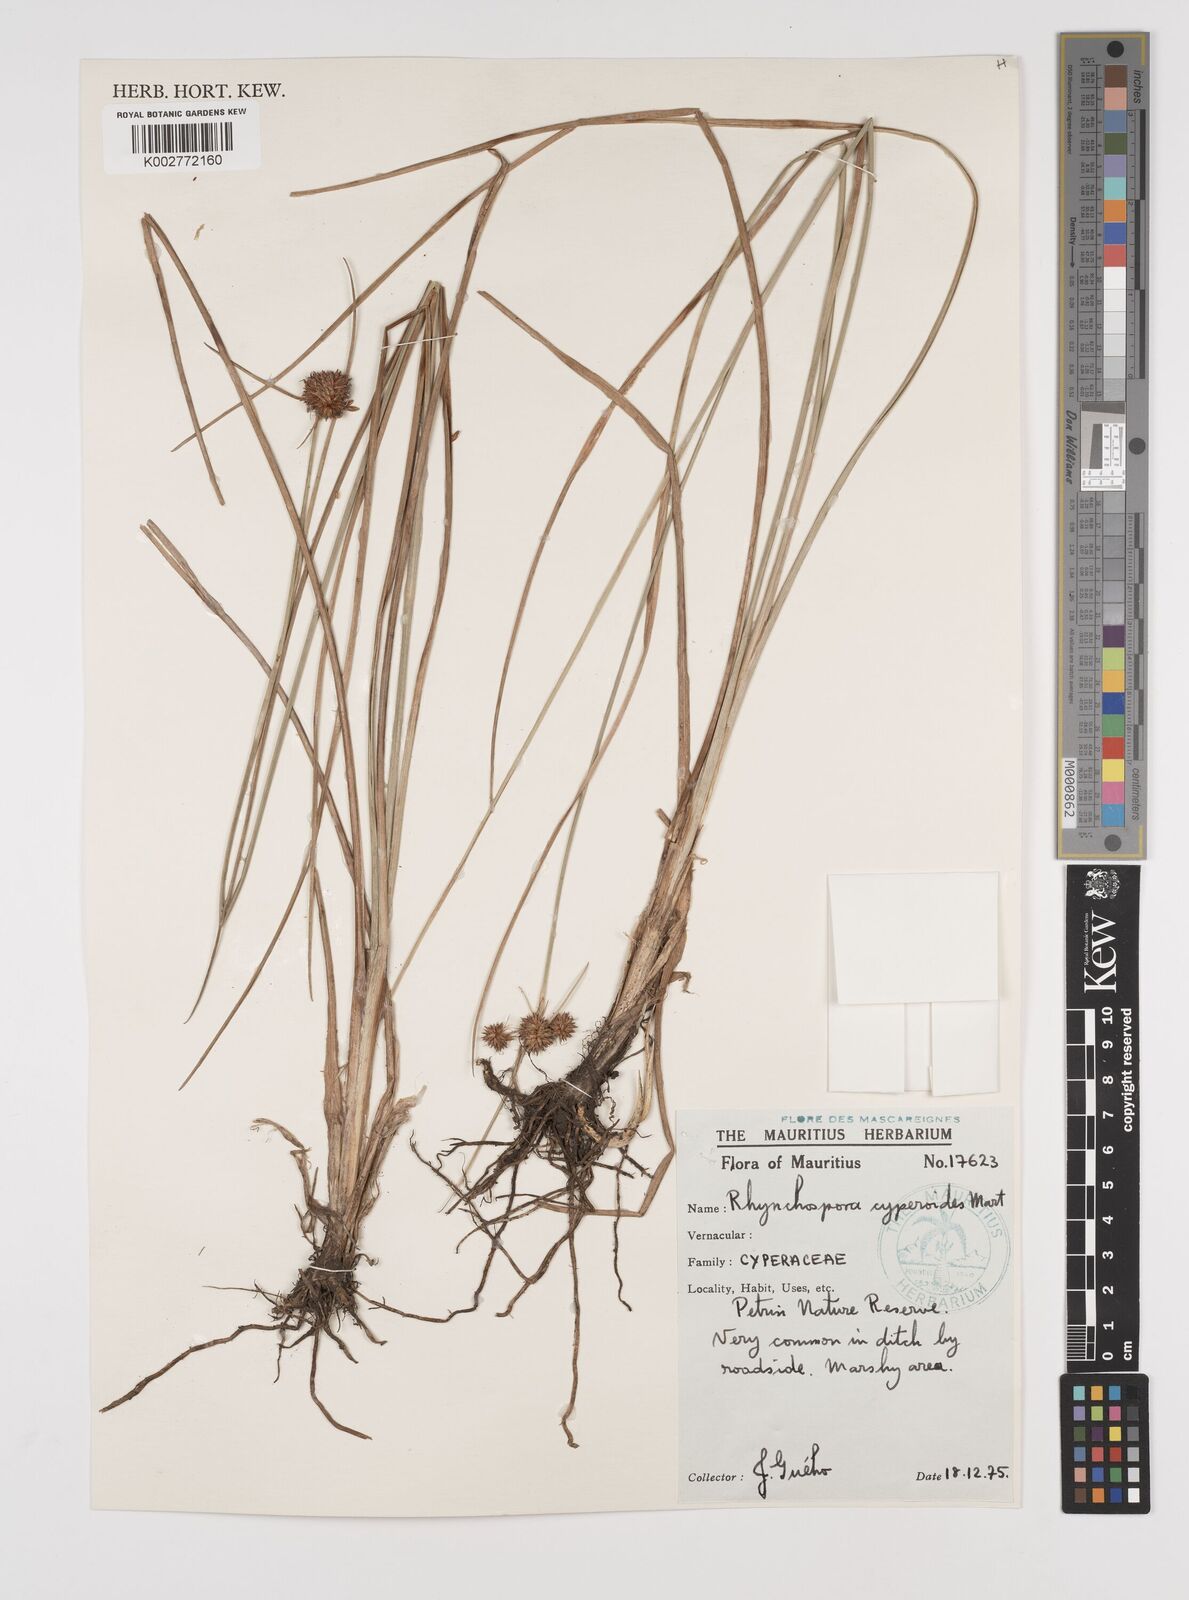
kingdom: Plantae
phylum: Tracheophyta
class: Liliopsida
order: Poales
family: Cyperaceae
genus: Rhynchospora
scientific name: Rhynchospora holoschoenoides
